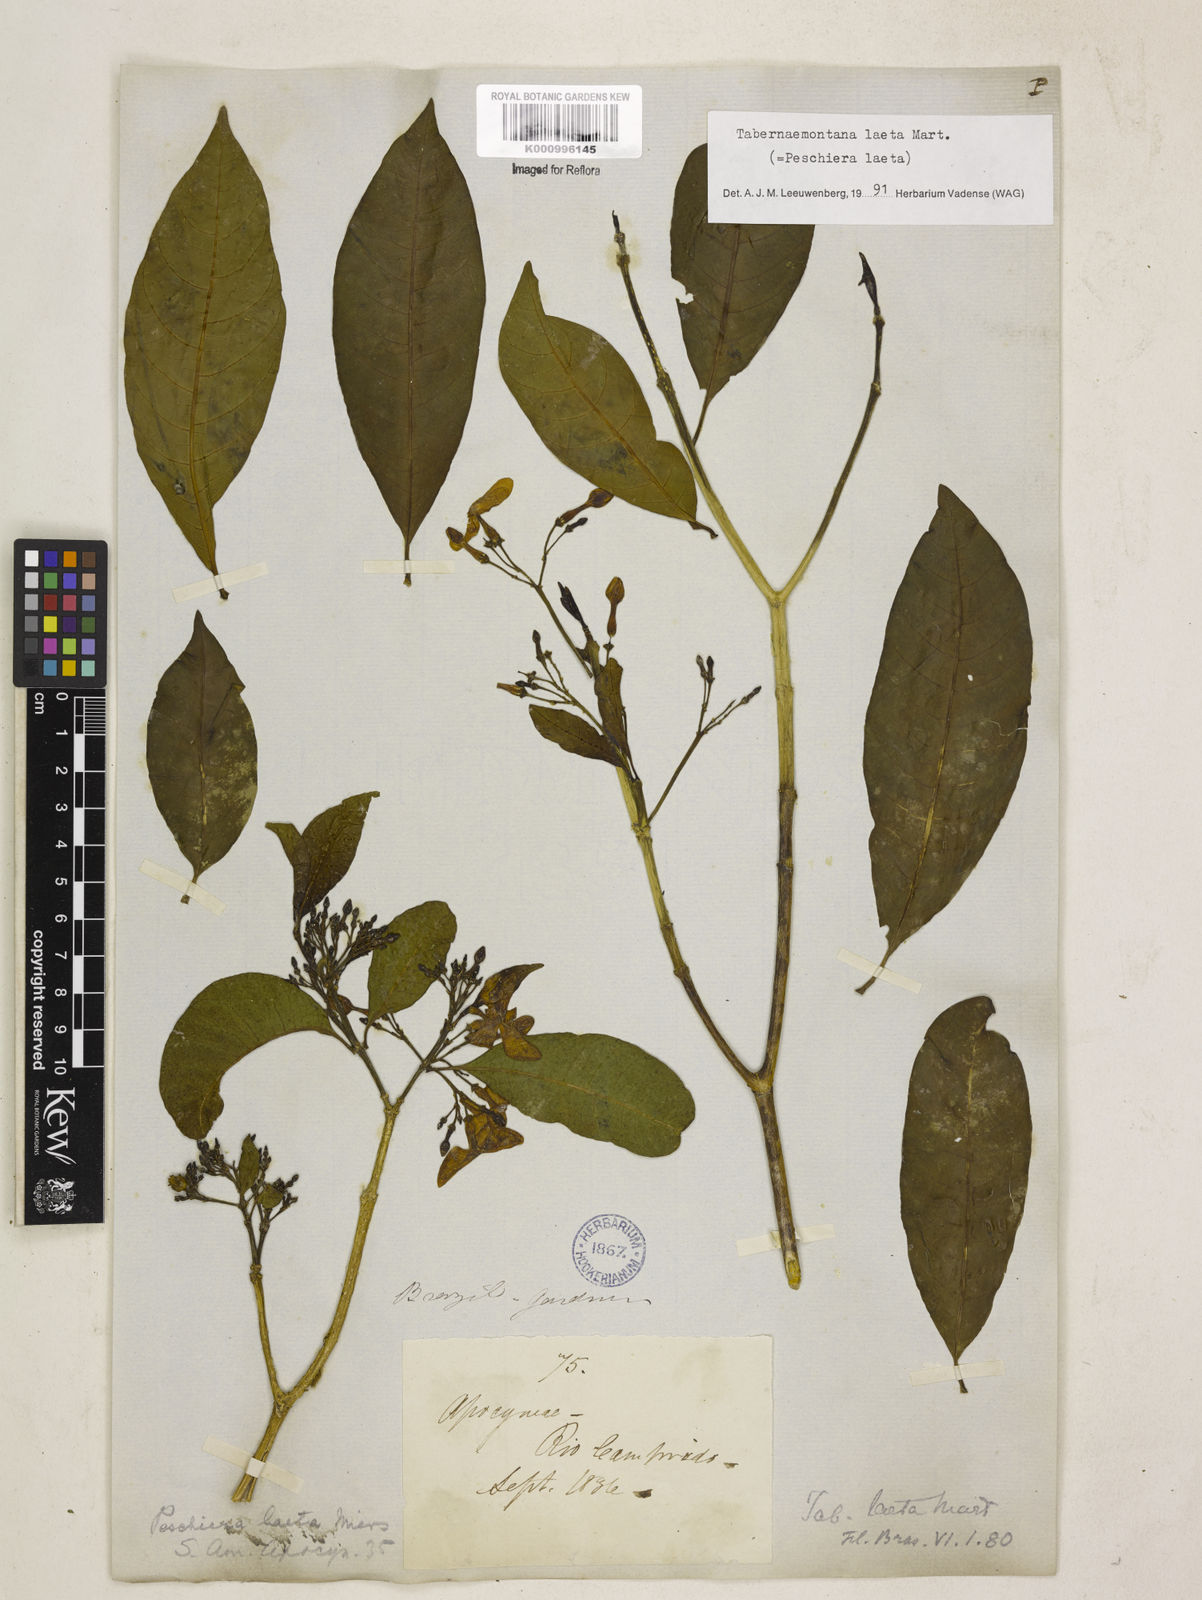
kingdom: Plantae
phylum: Tracheophyta
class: Magnoliopsida
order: Gentianales
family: Apocynaceae
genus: Tabernaemontana
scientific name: Tabernaemontana laeta
